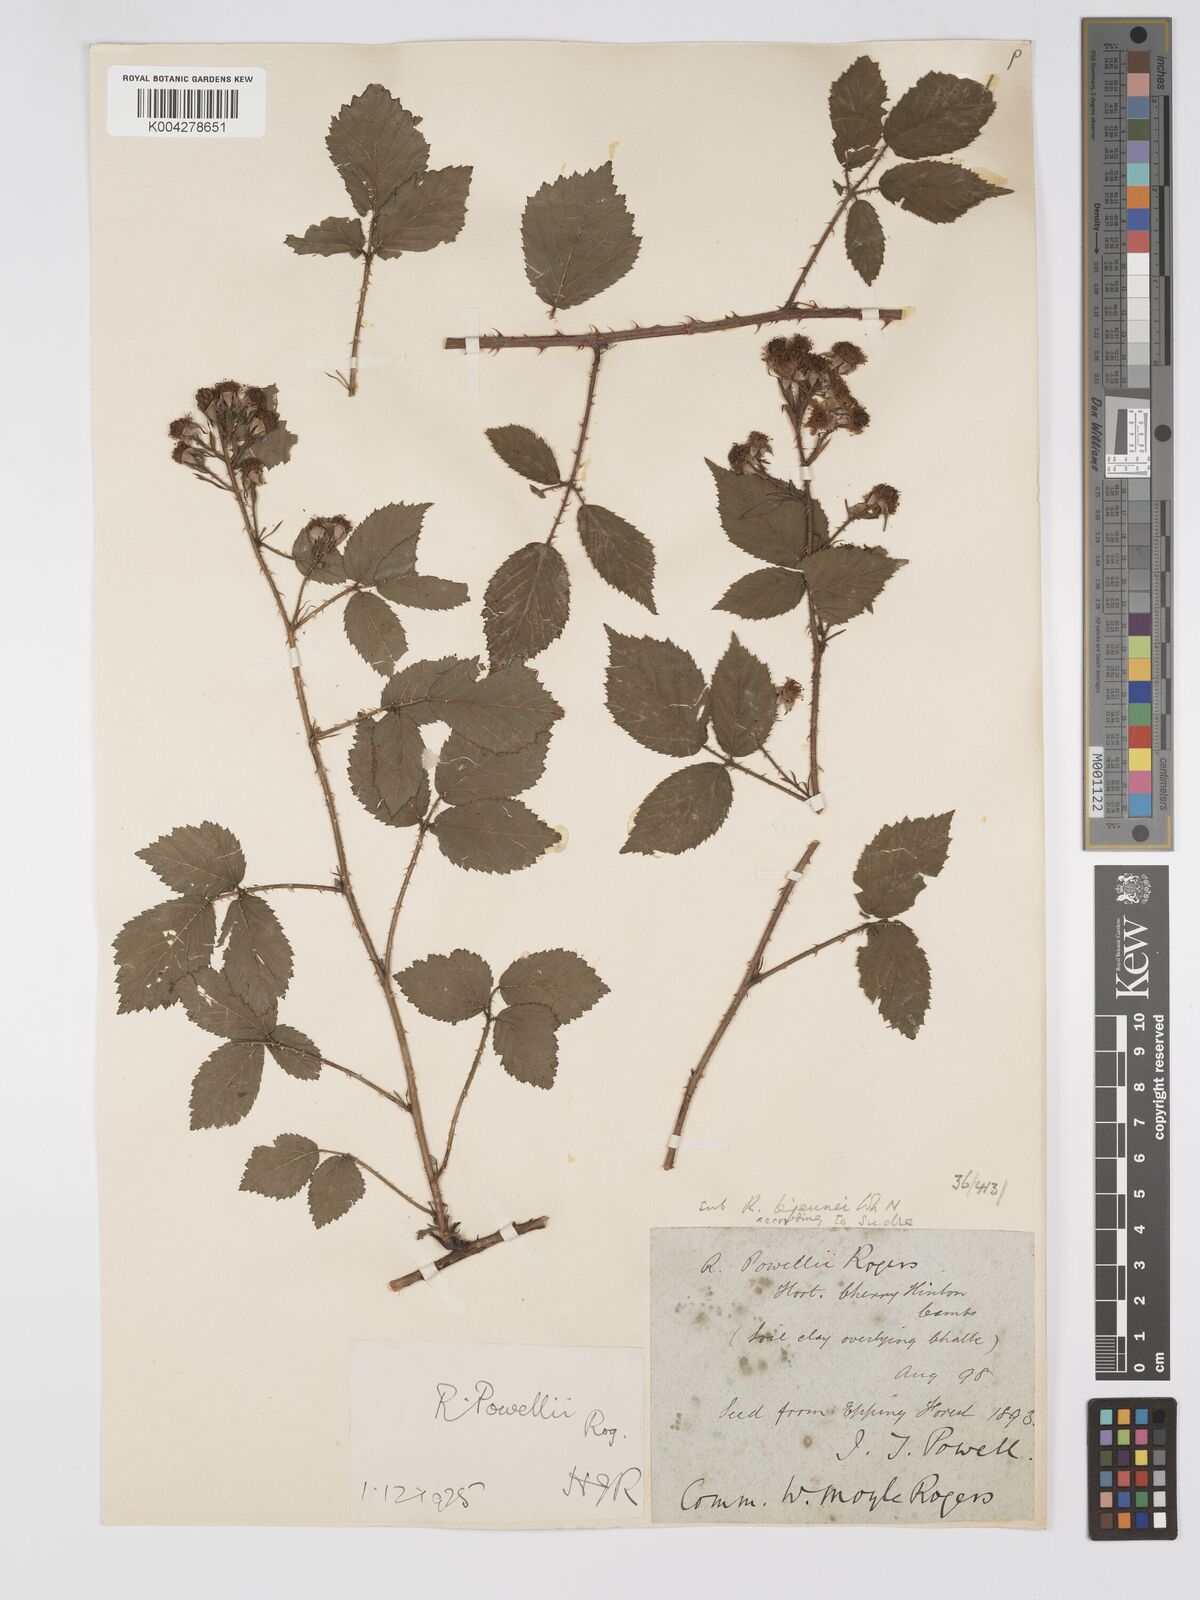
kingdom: Plantae
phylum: Tracheophyta
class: Magnoliopsida
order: Rosales
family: Rosaceae
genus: Rubus
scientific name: Rubus radula
